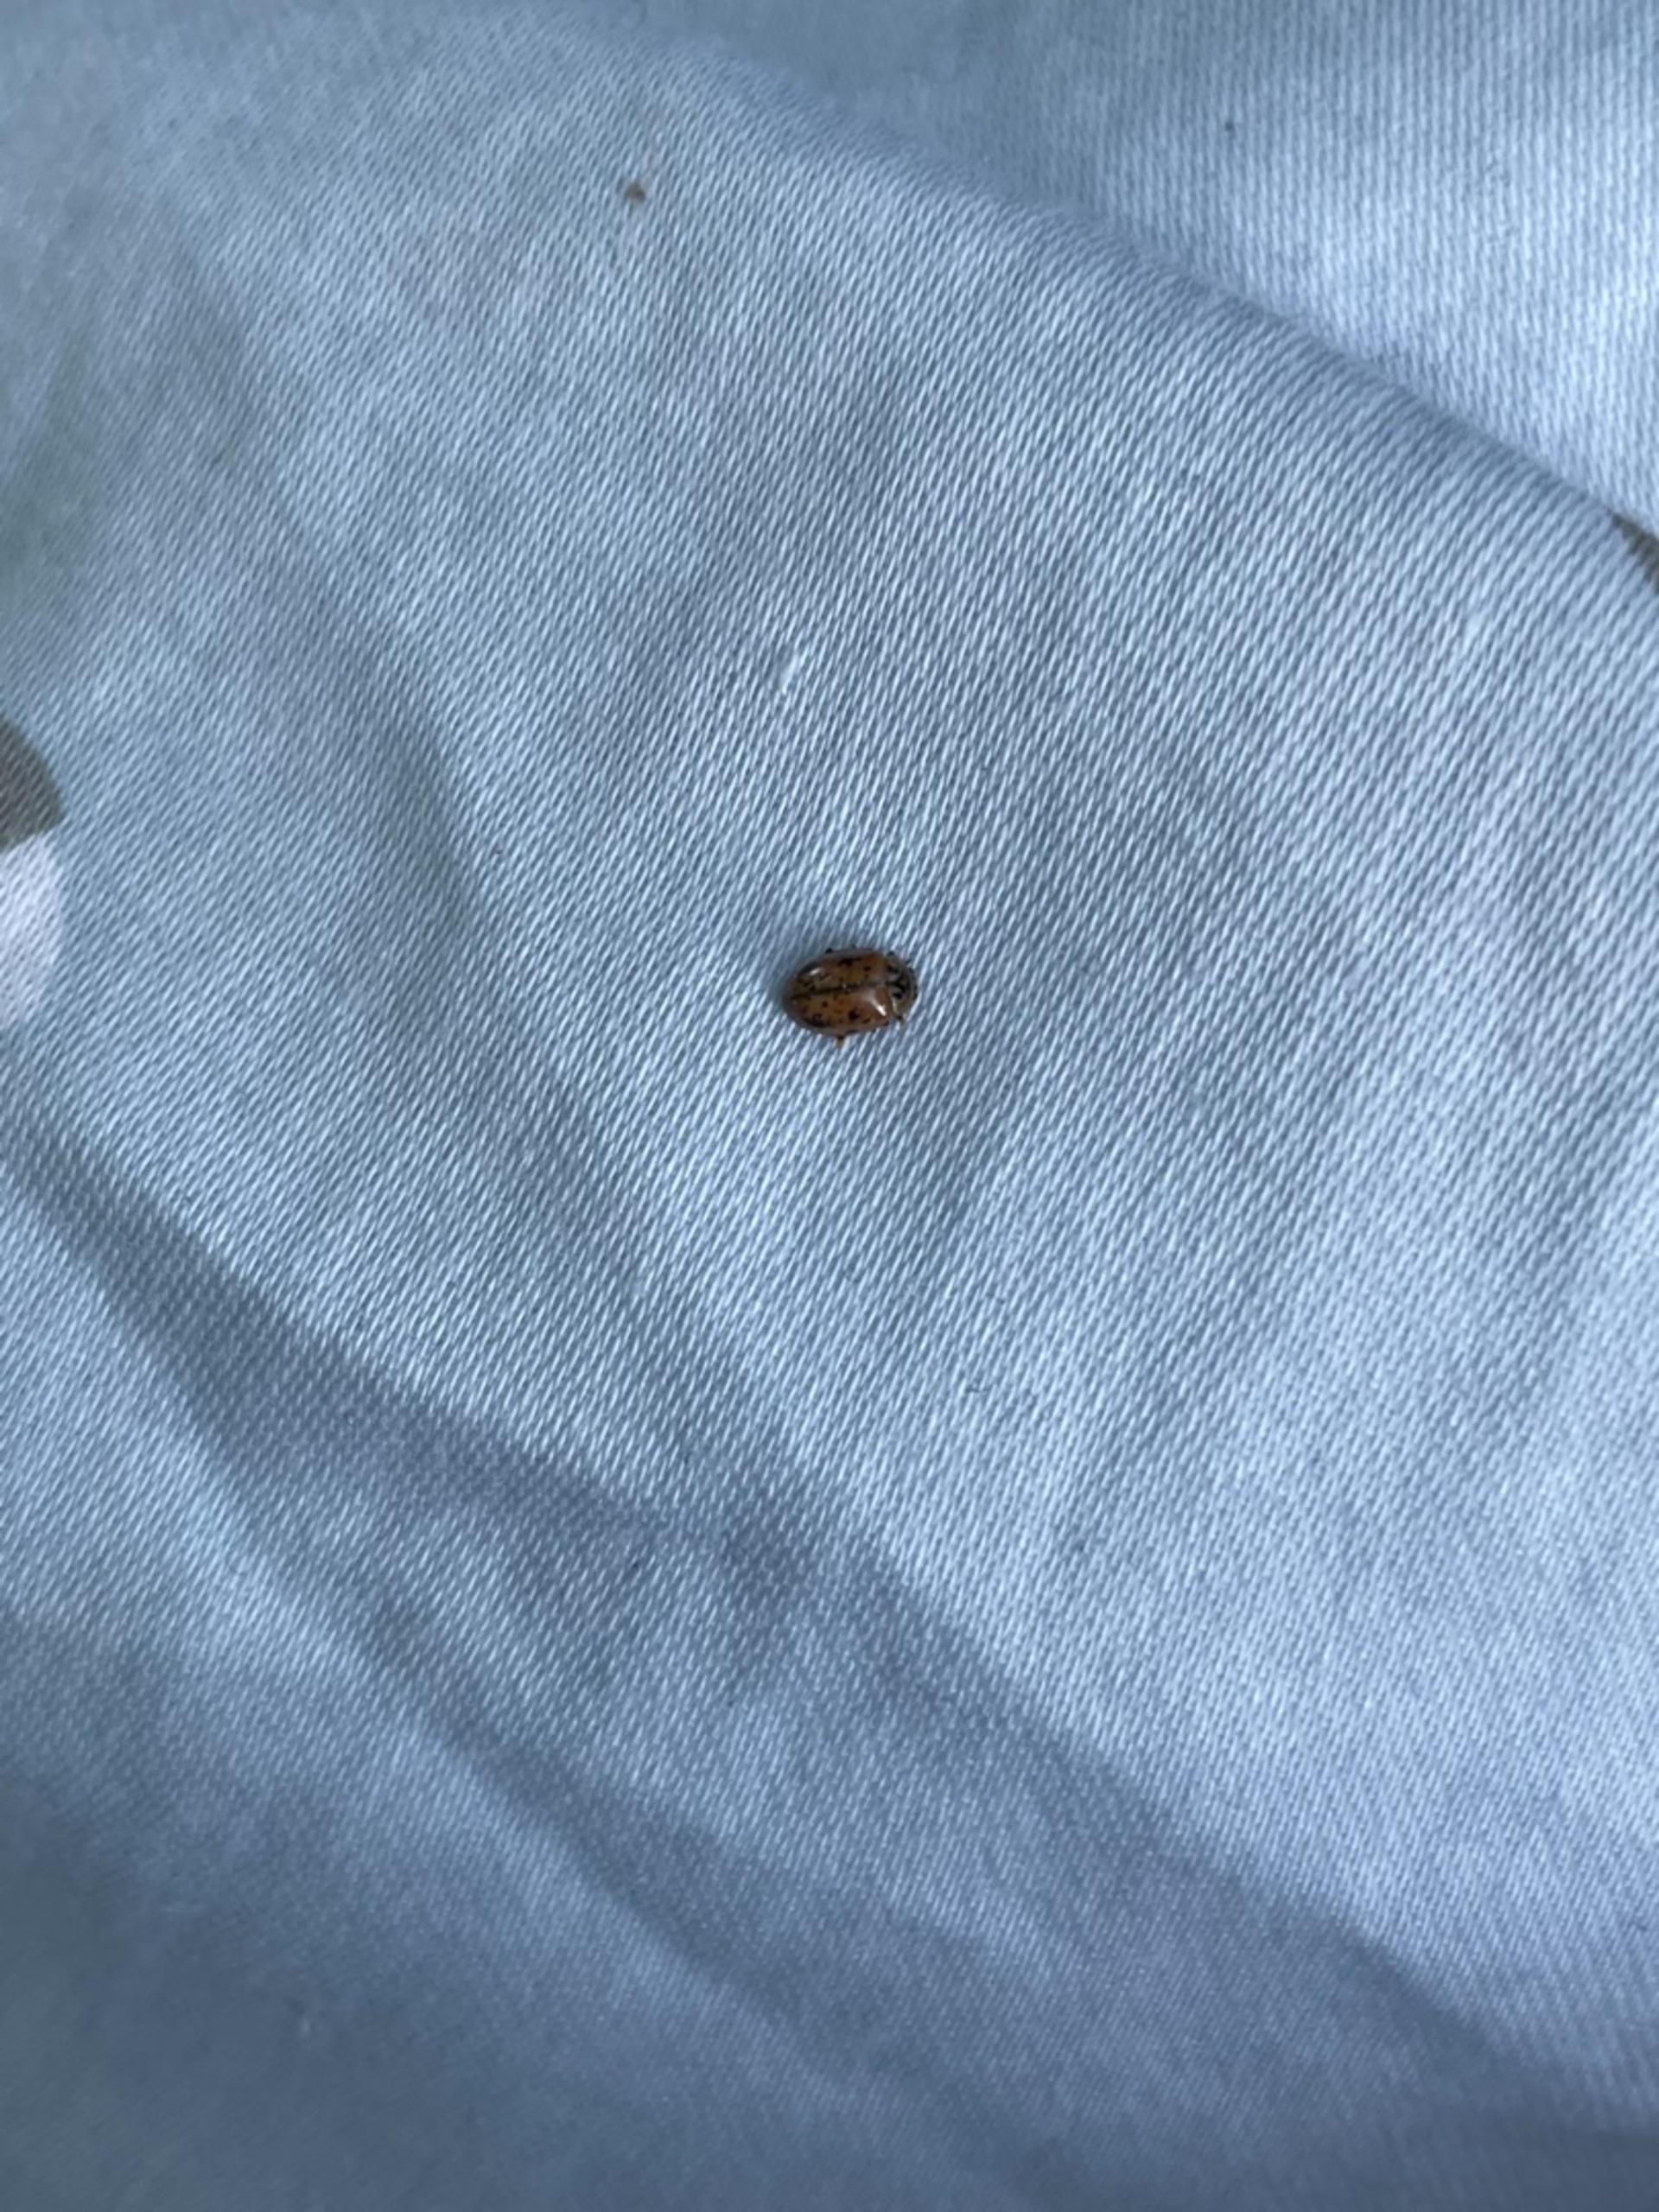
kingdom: Animalia
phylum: Arthropoda
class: Insecta
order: Coleoptera
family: Coccinellidae
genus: Aphidecta
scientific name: Aphidecta obliterata
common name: Uplettet mariehøne
